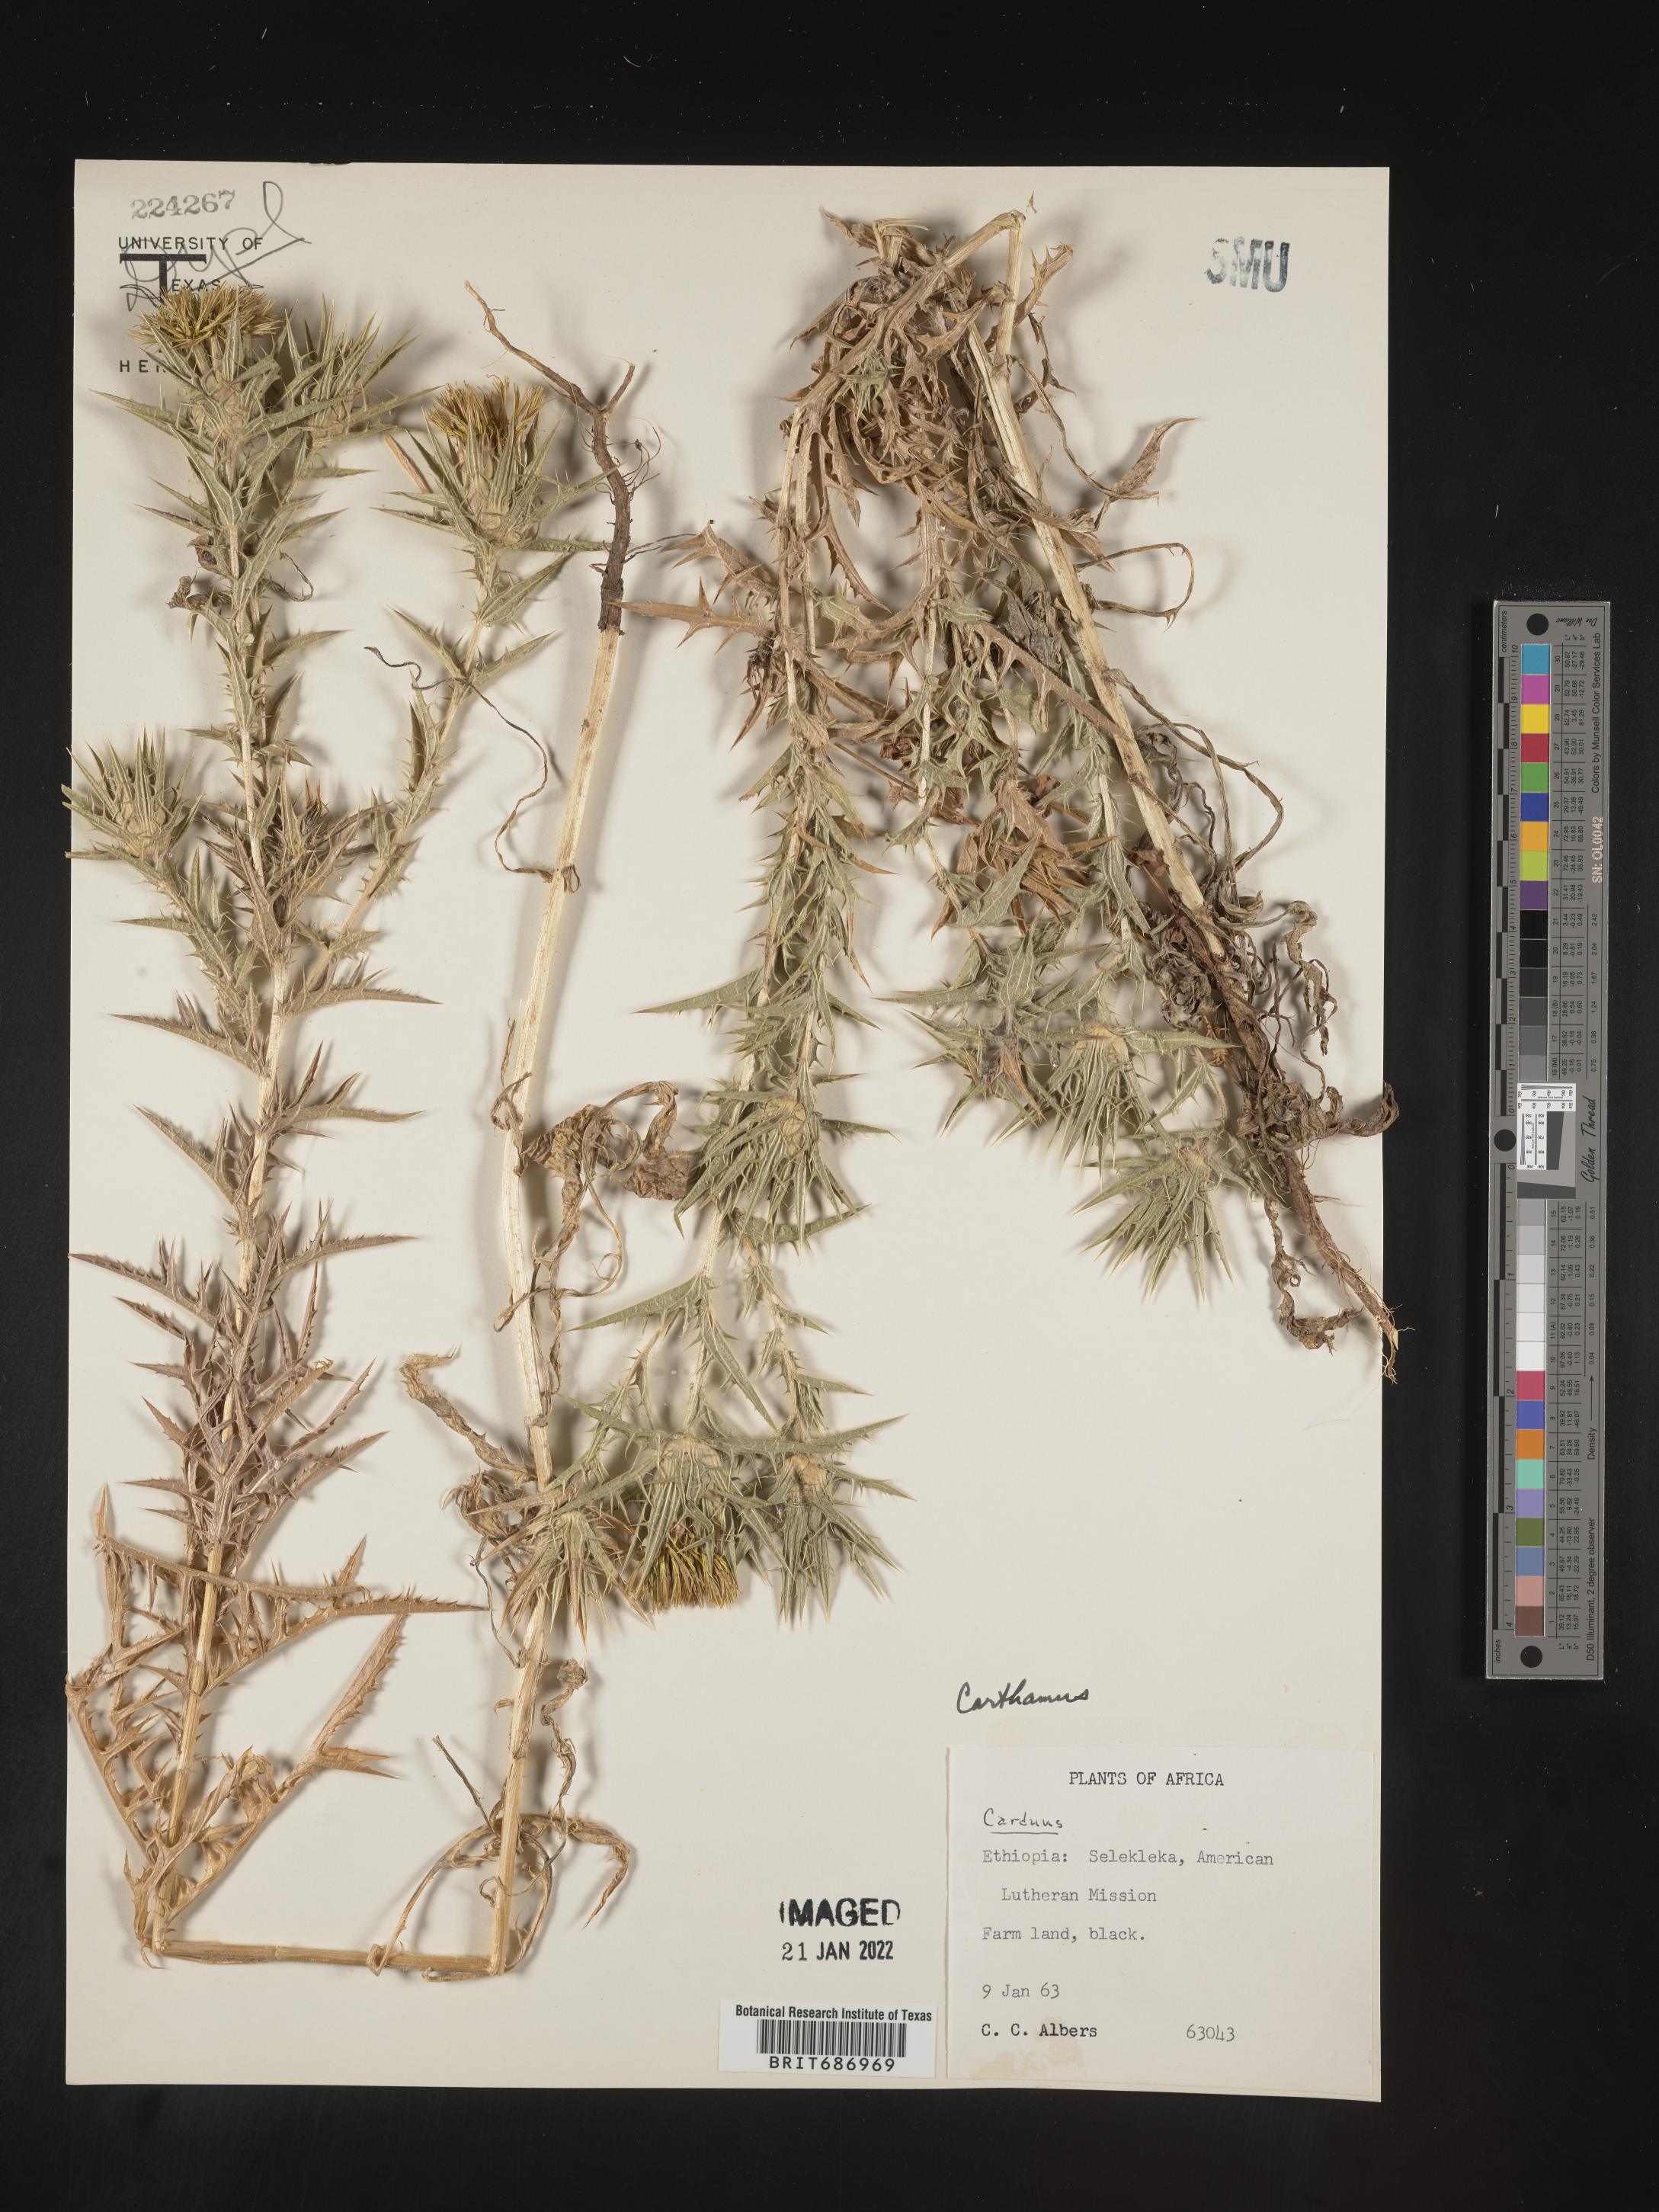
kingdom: Plantae
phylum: Tracheophyta
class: Magnoliopsida
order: Asterales
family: Asteraceae
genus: Carthamus
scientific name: Carthamus
